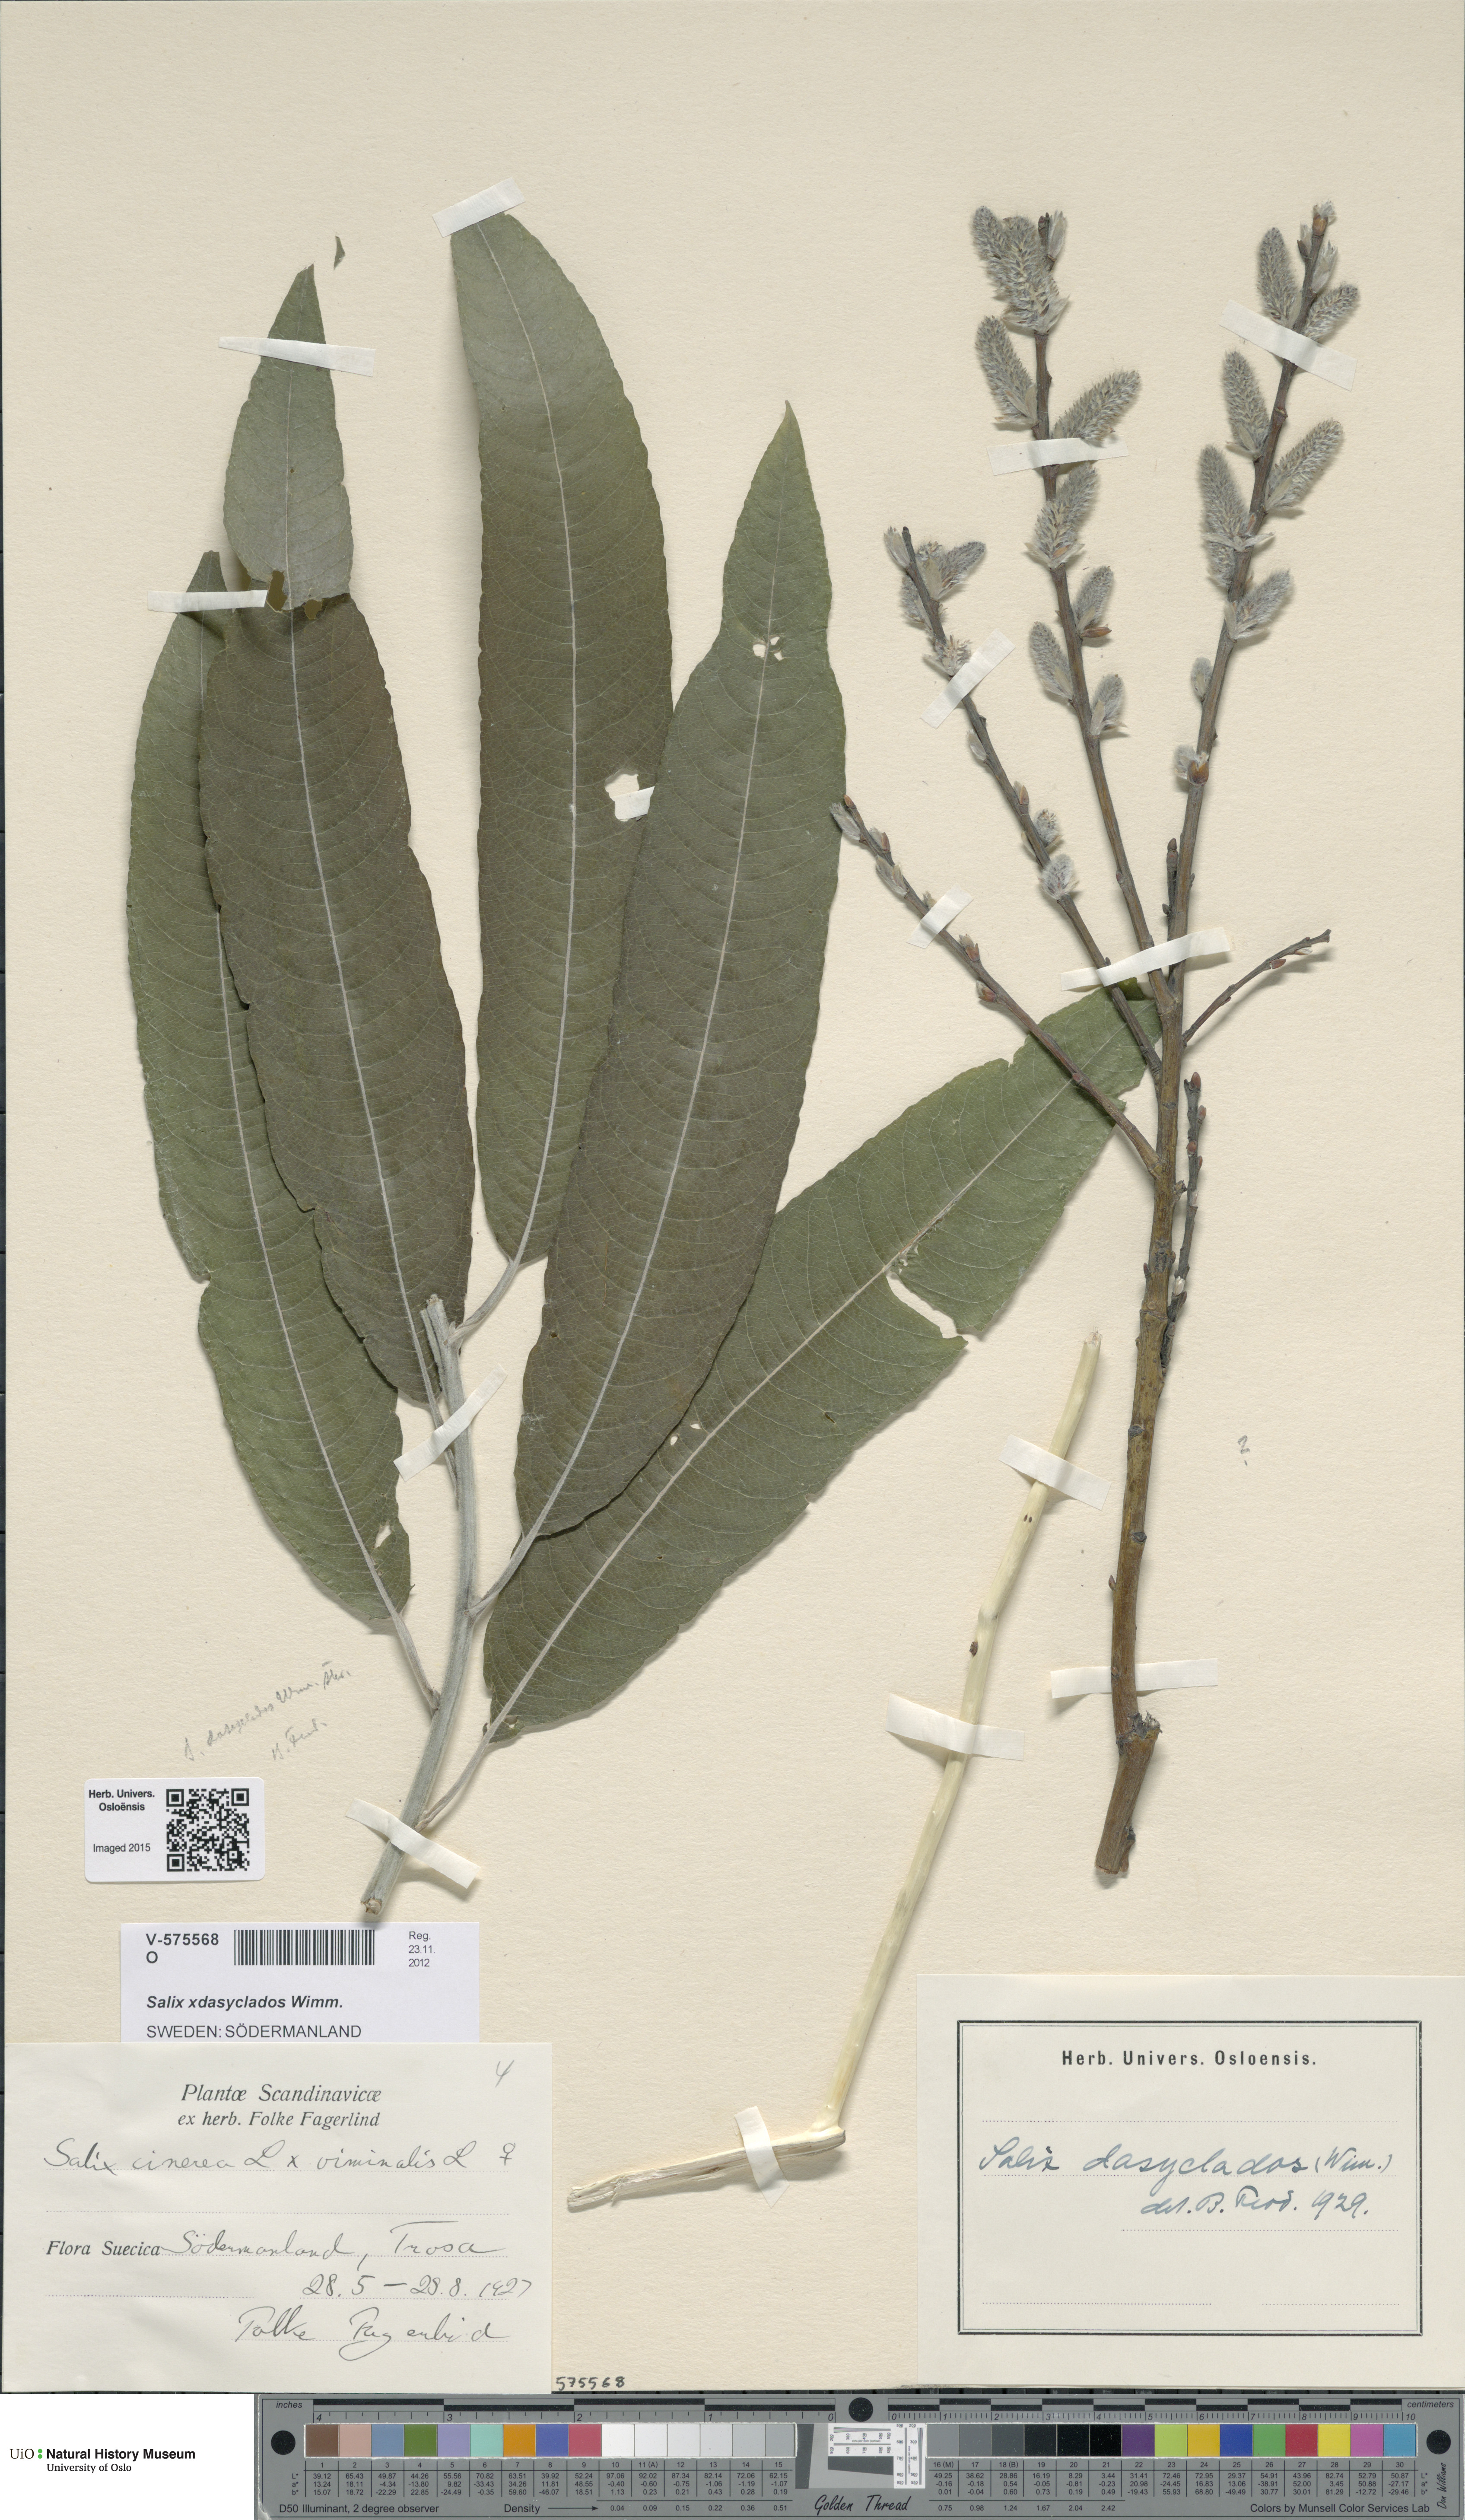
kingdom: Plantae
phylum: Tracheophyta
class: Magnoliopsida
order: Malpighiales
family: Salicaceae
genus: Salix
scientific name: Salix gmelinii
